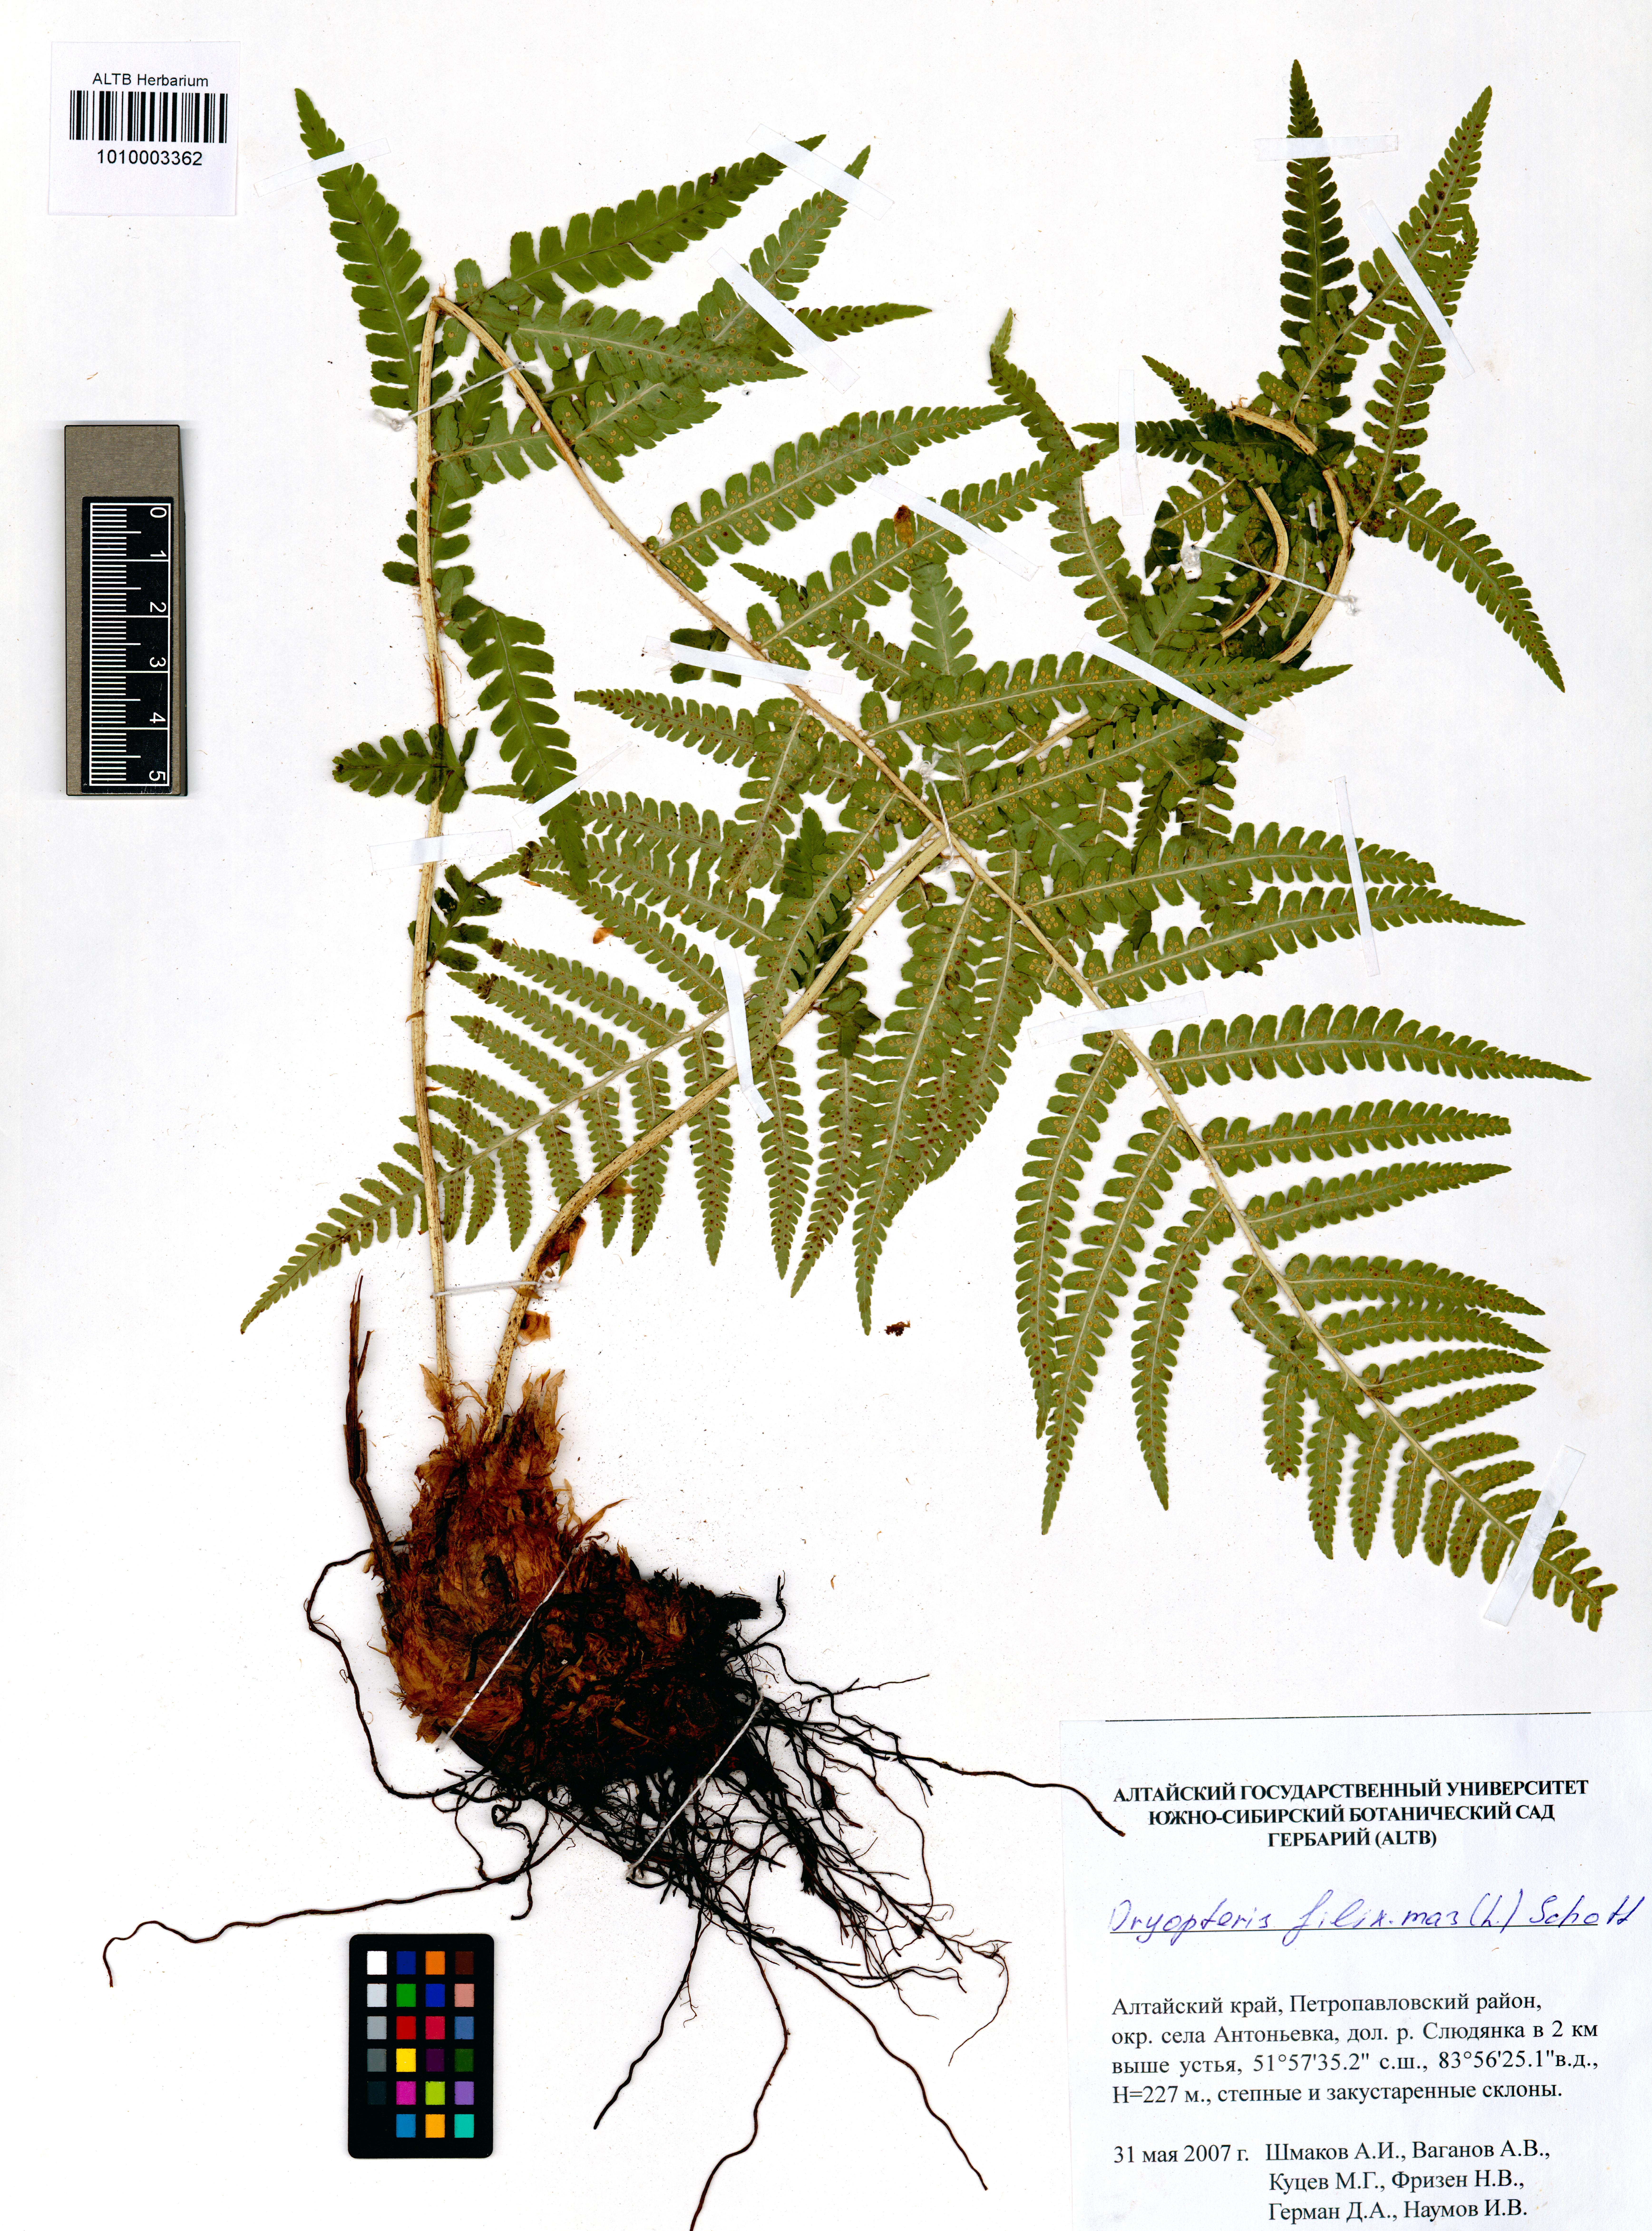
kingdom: Plantae
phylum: Tracheophyta
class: Polypodiopsida
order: Polypodiales
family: Dryopteridaceae
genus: Dryopteris
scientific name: Dryopteris filix-mas
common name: Male fern
